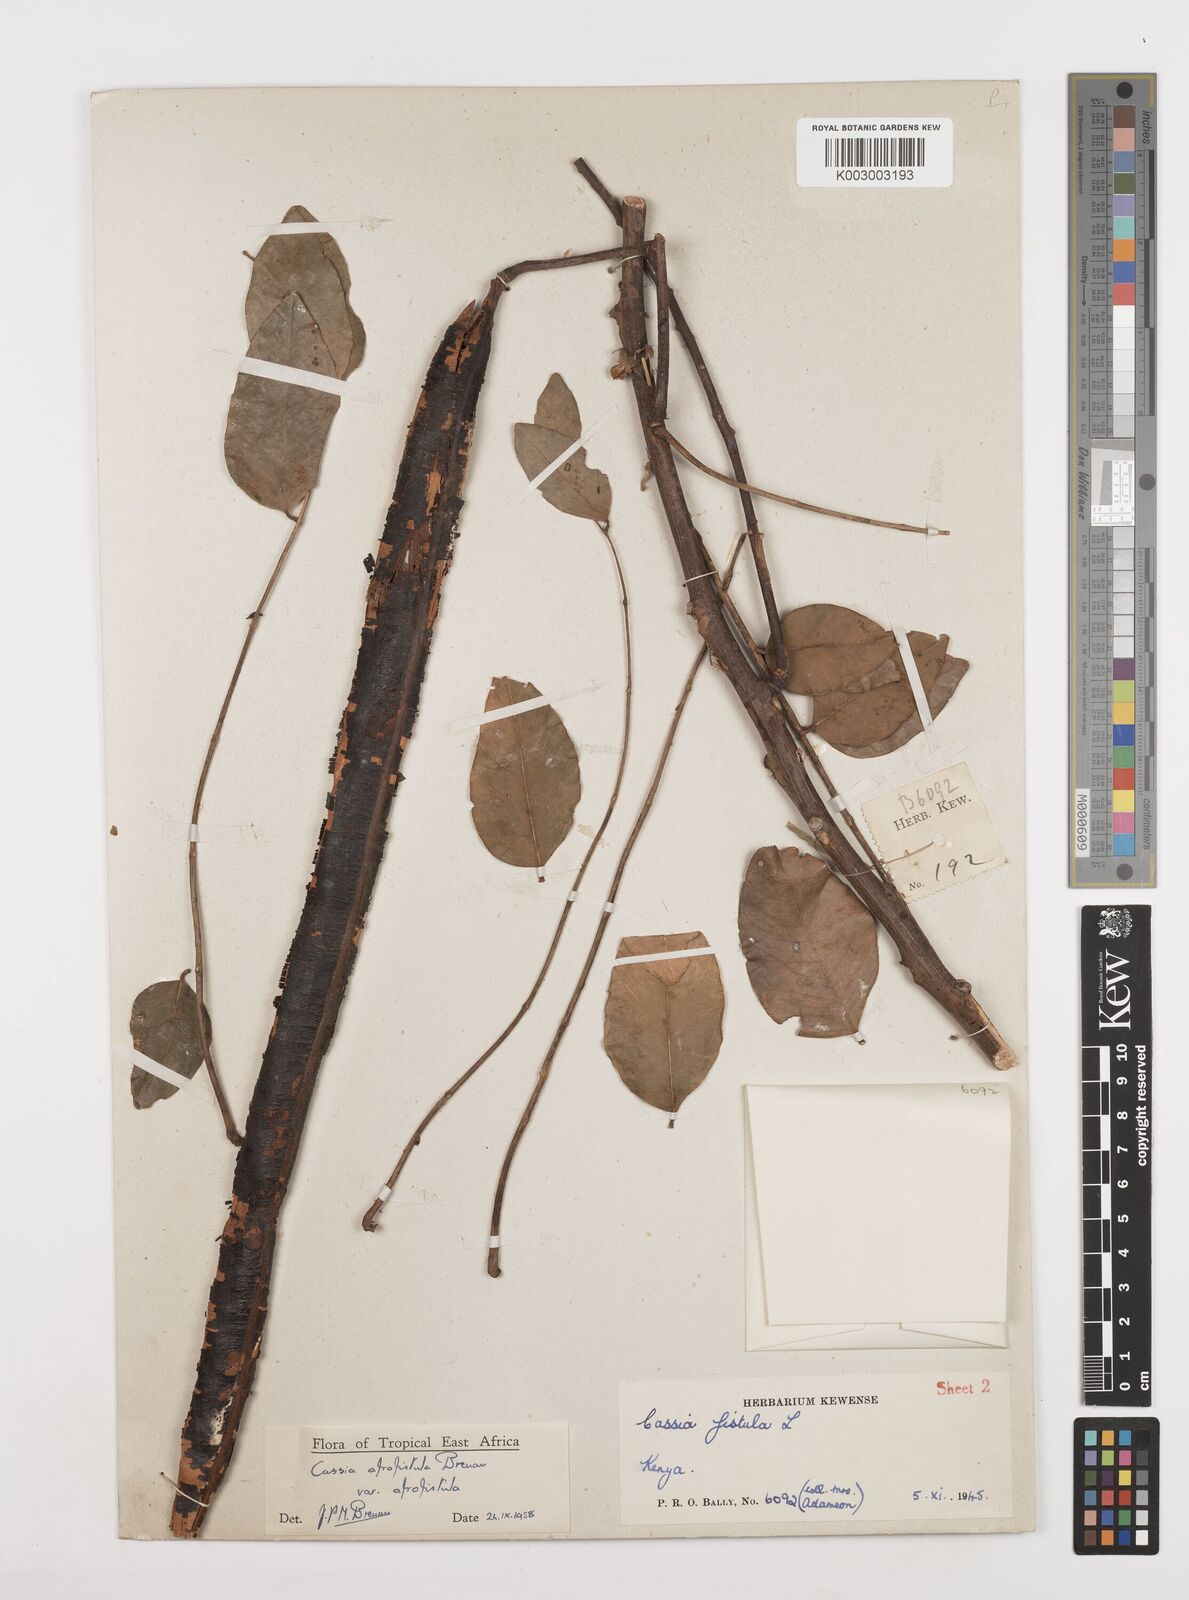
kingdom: Plantae
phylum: Tracheophyta
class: Magnoliopsida
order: Fabales
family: Fabaceae
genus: Cassia
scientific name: Cassia afrofistula
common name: Kenyan shower
